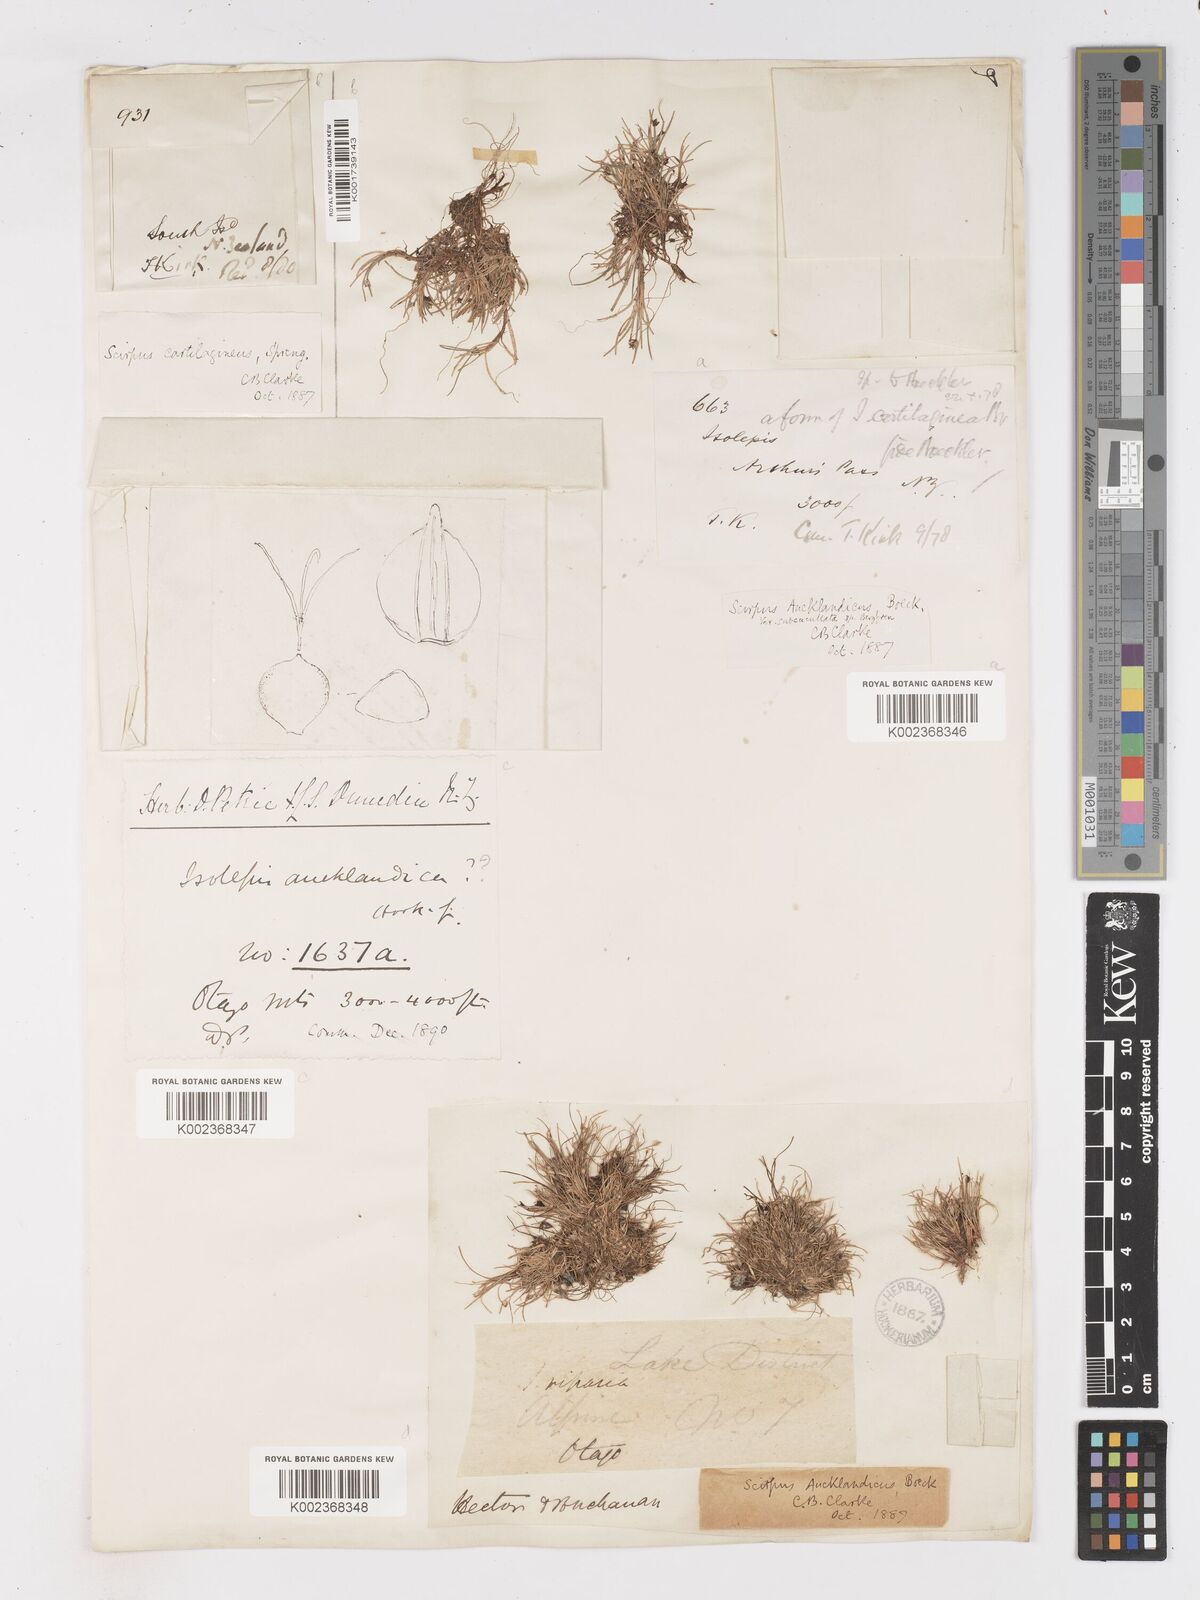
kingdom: Plantae
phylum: Tracheophyta
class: Liliopsida
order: Poales
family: Cyperaceae
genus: Isolepis
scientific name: Isolepis aucklandica
